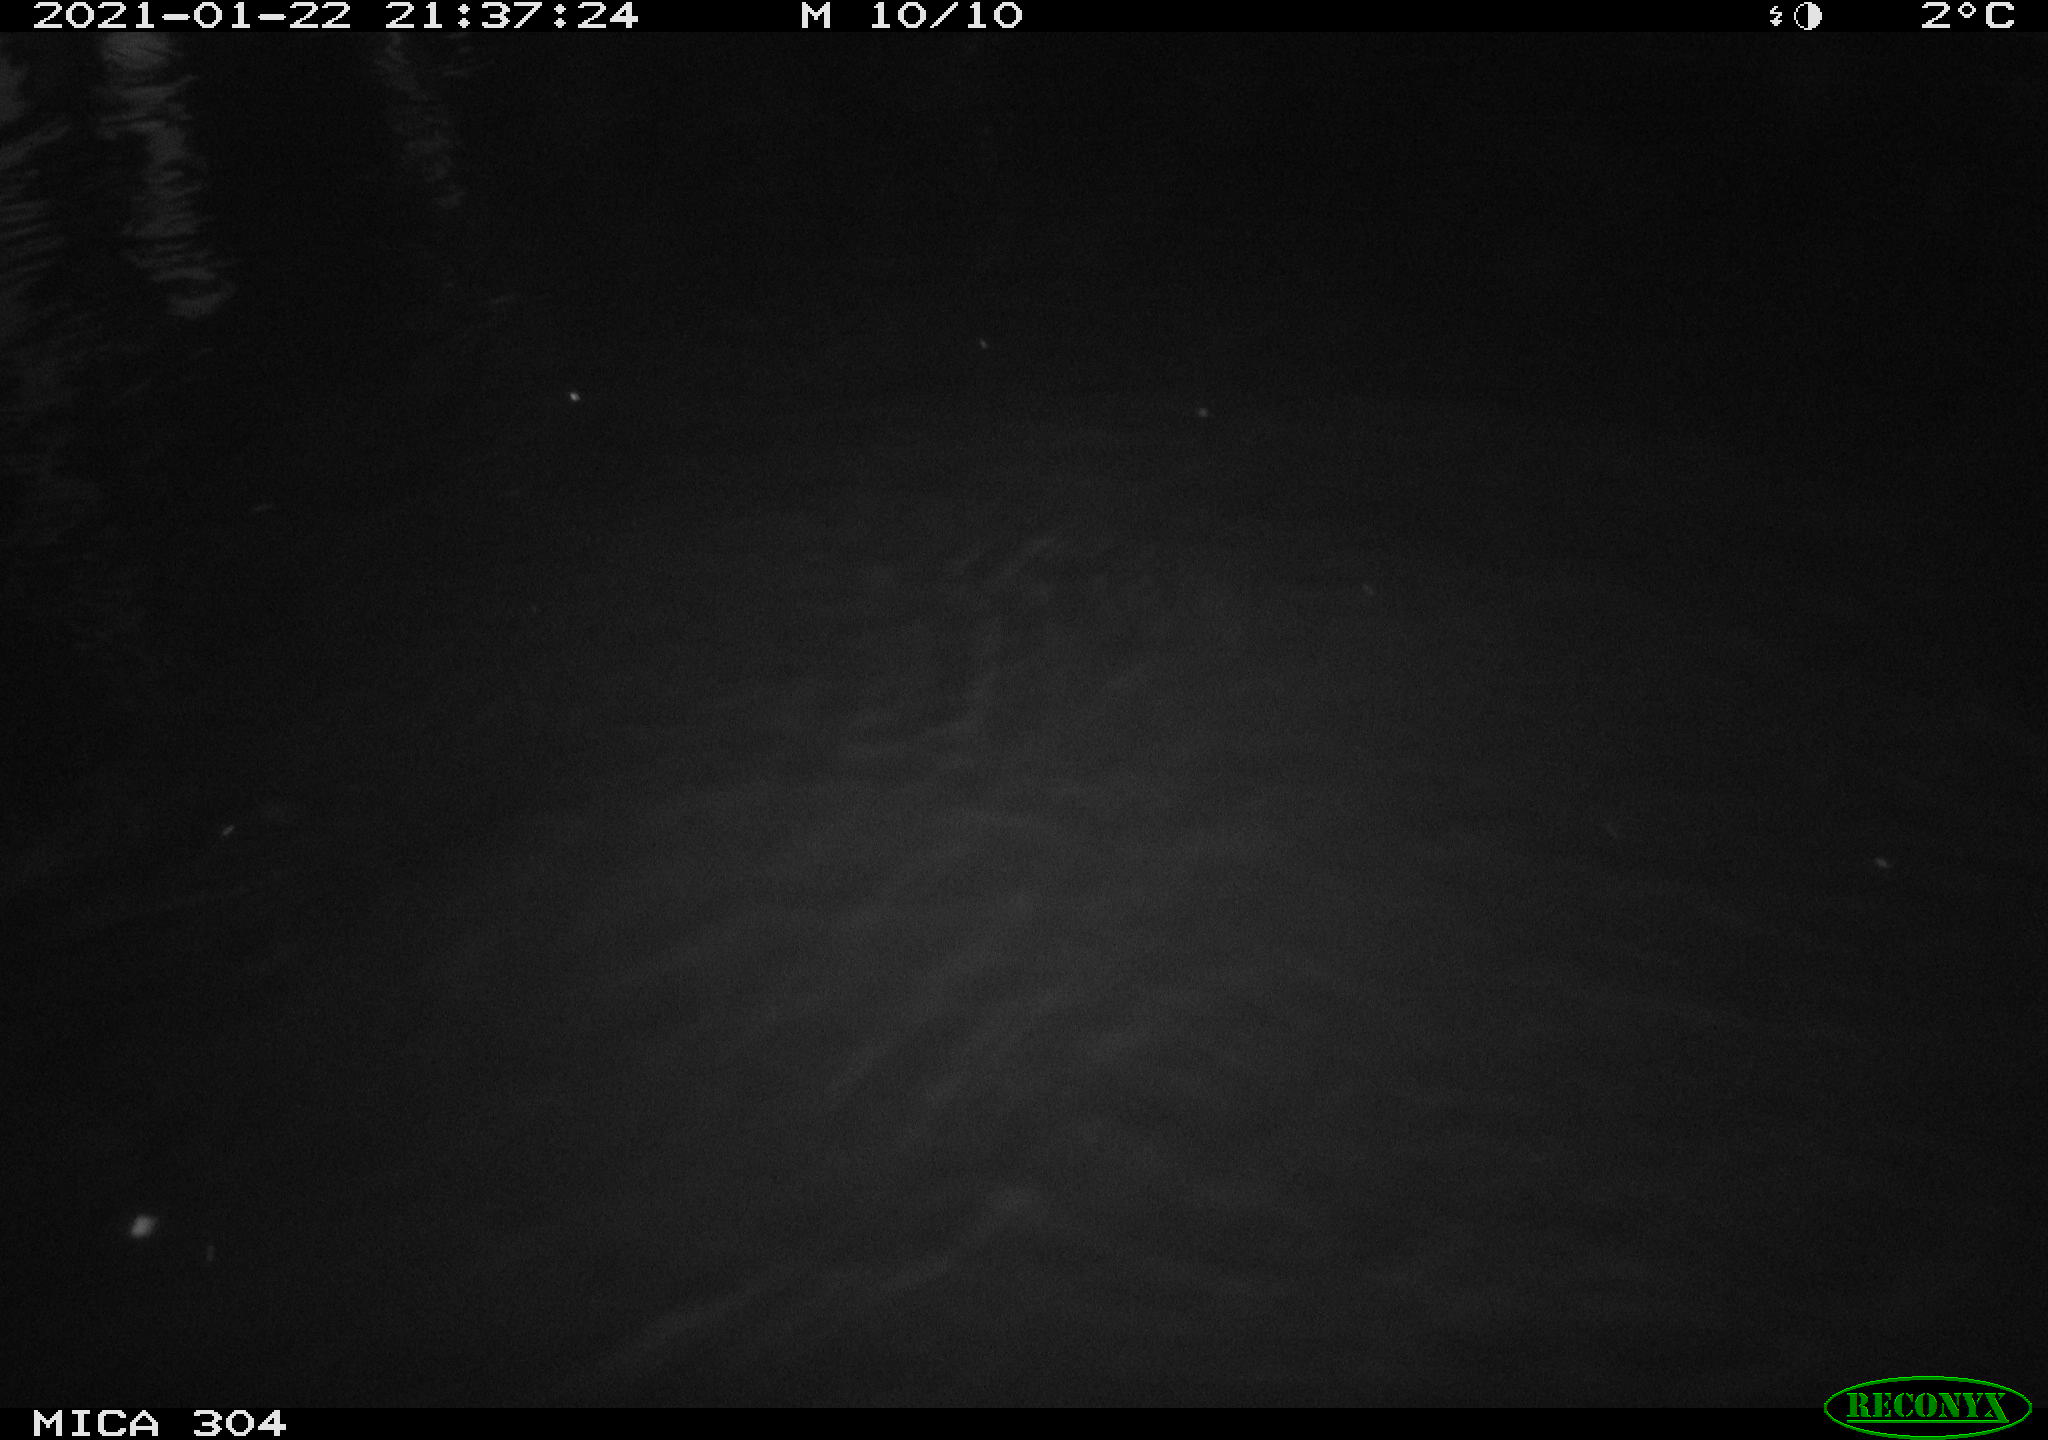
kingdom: Animalia
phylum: Chordata
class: Mammalia
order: Rodentia
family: Cricetidae
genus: Ondatra
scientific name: Ondatra zibethicus
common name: Muskrat
